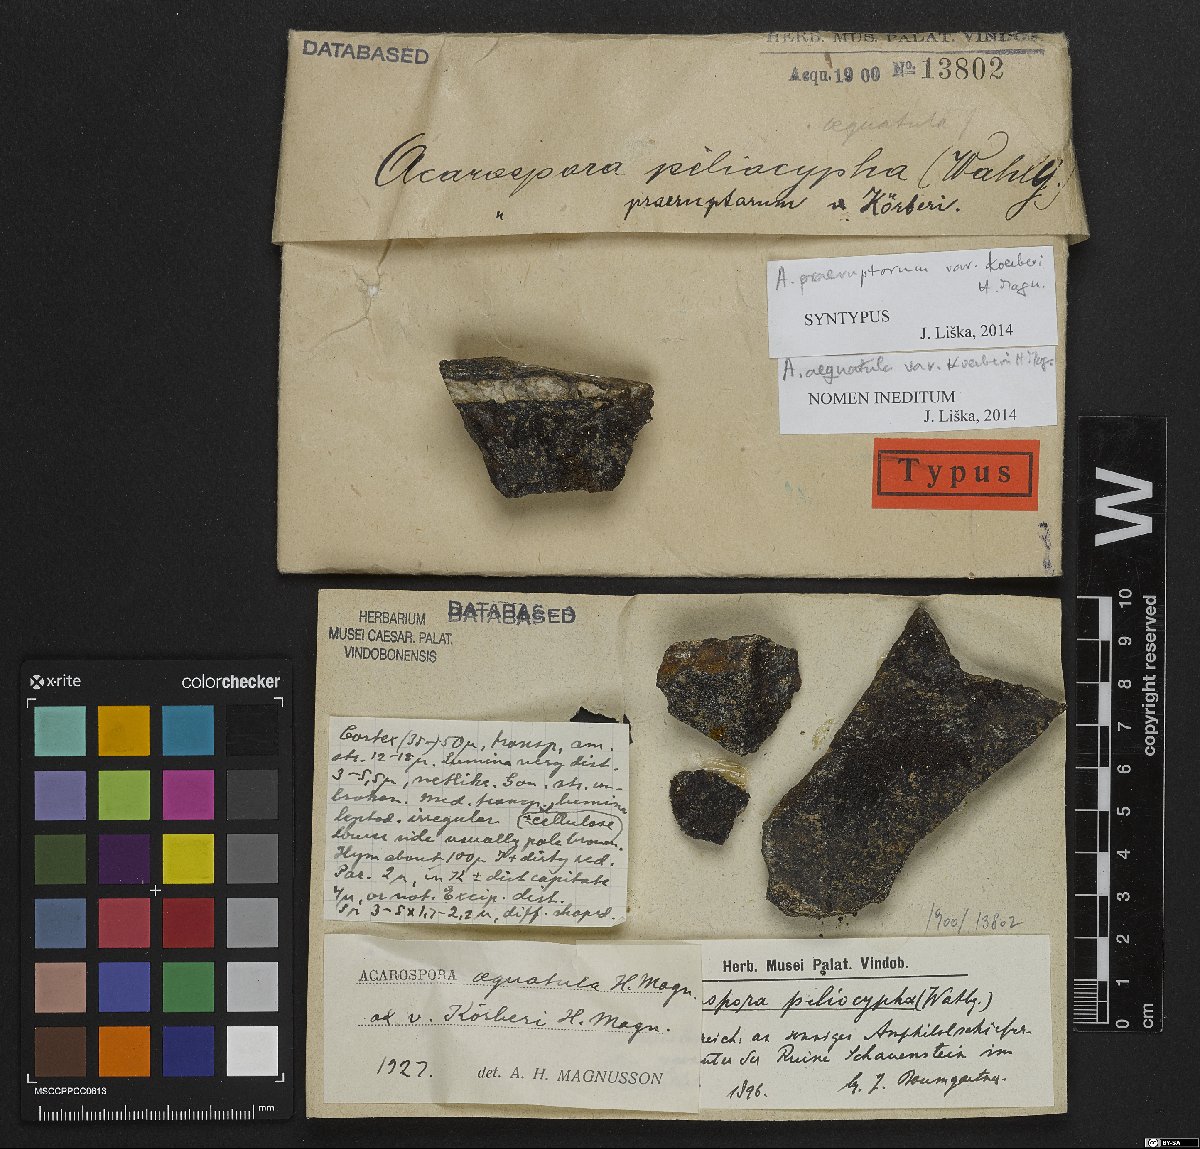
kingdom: Fungi
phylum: Ascomycota
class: Lecanoromycetes
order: Acarosporales
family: Acarosporaceae
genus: Acarospora
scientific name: Acarospora nitrophila
